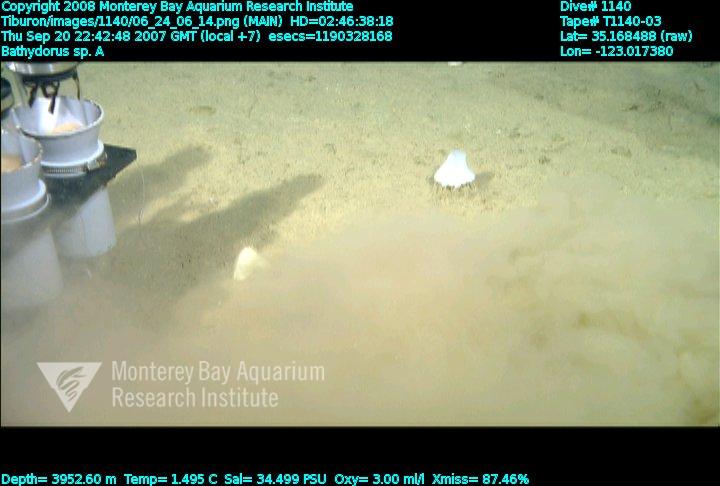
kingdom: Animalia
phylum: Porifera
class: Hexactinellida
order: Lyssacinosida
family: Rossellidae
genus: Bathydorus
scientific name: Bathydorus laniger
